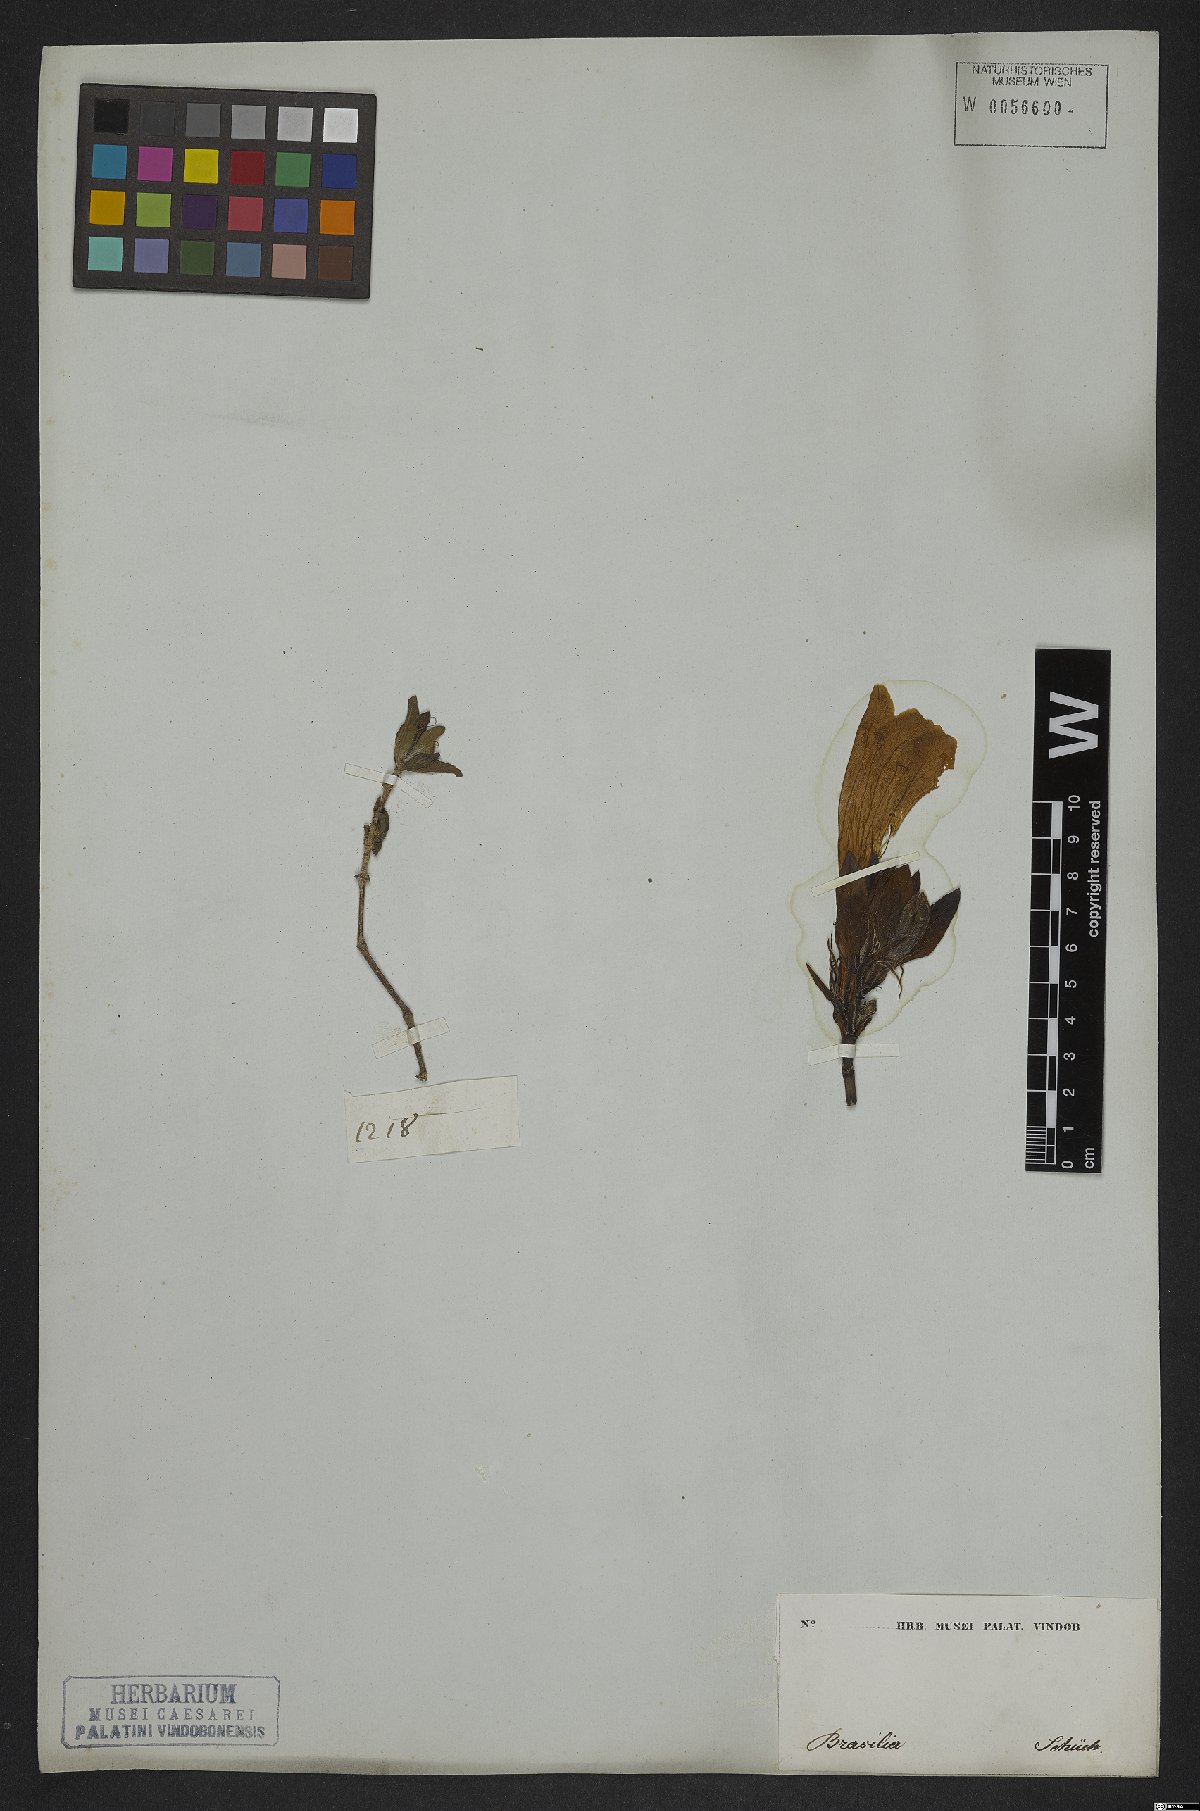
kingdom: Plantae
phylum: Tracheophyta
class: Magnoliopsida
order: Lamiales
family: Acanthaceae
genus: Ruellia
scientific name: Ruellia macrantha
